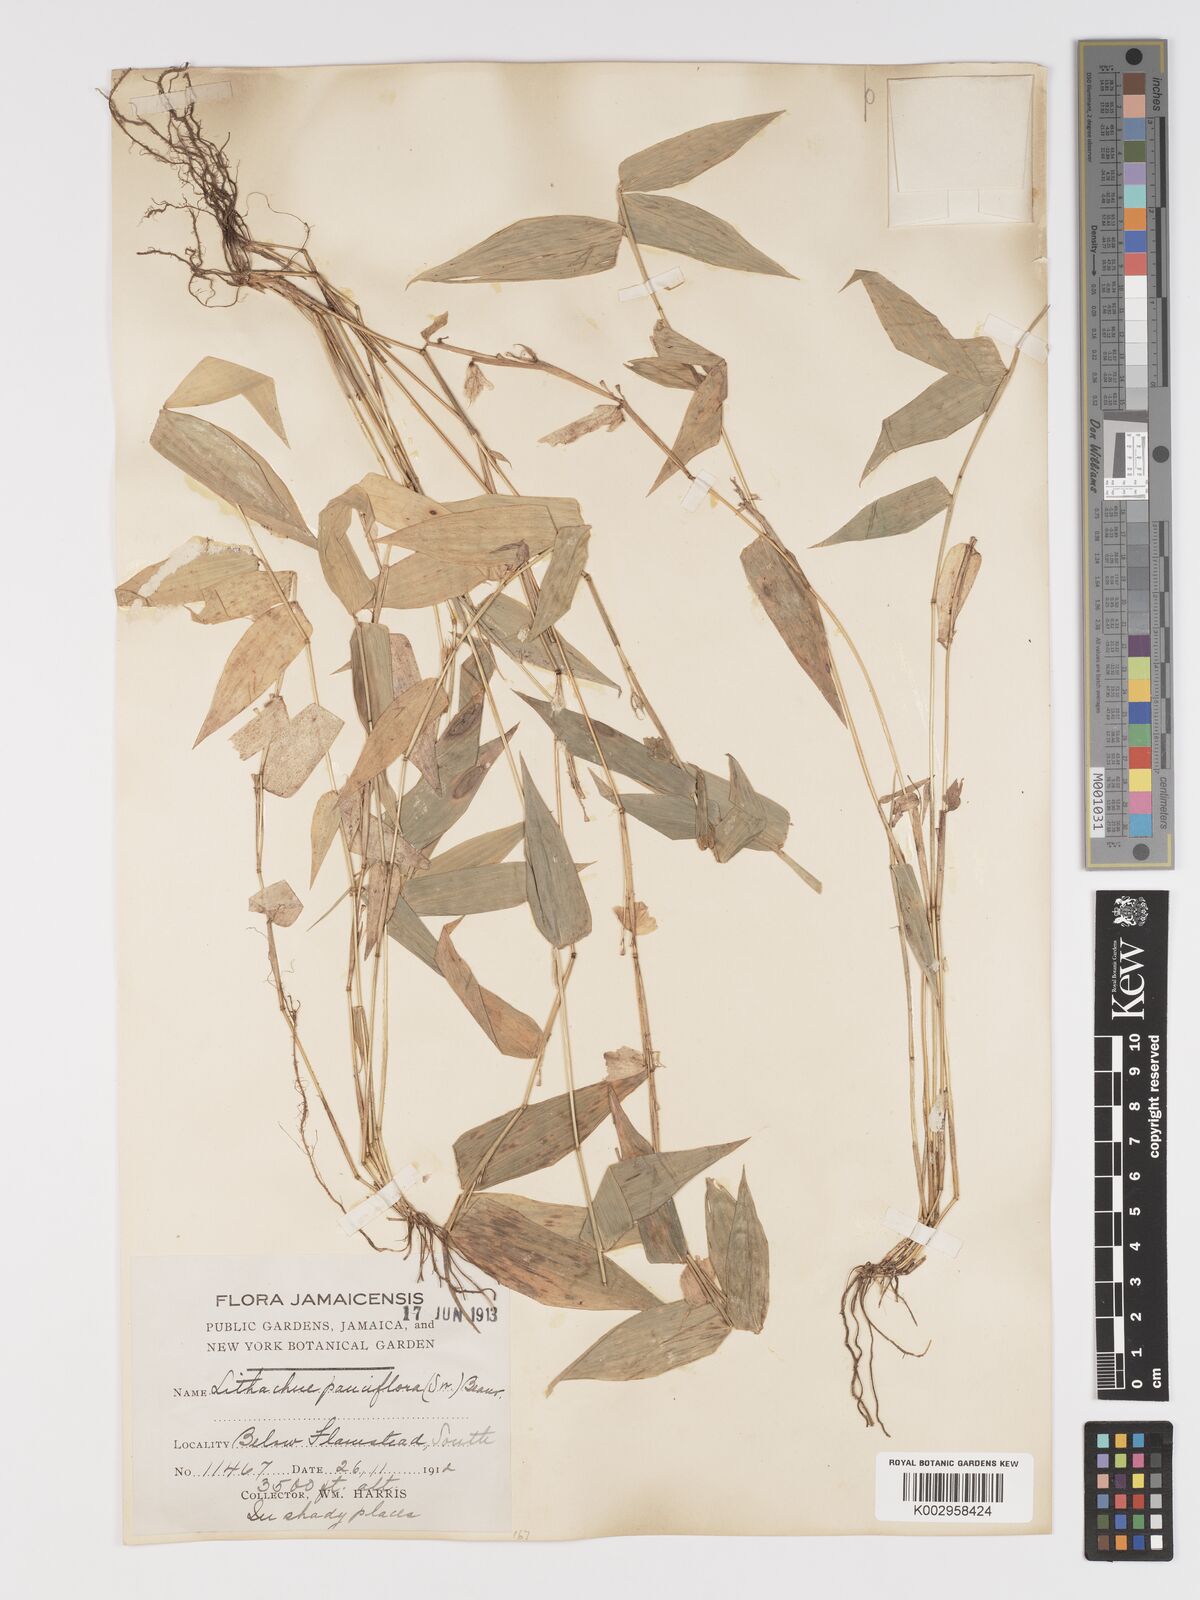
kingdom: Plantae
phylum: Tracheophyta
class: Liliopsida
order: Poales
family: Poaceae
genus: Lithachne
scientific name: Lithachne pauciflora
